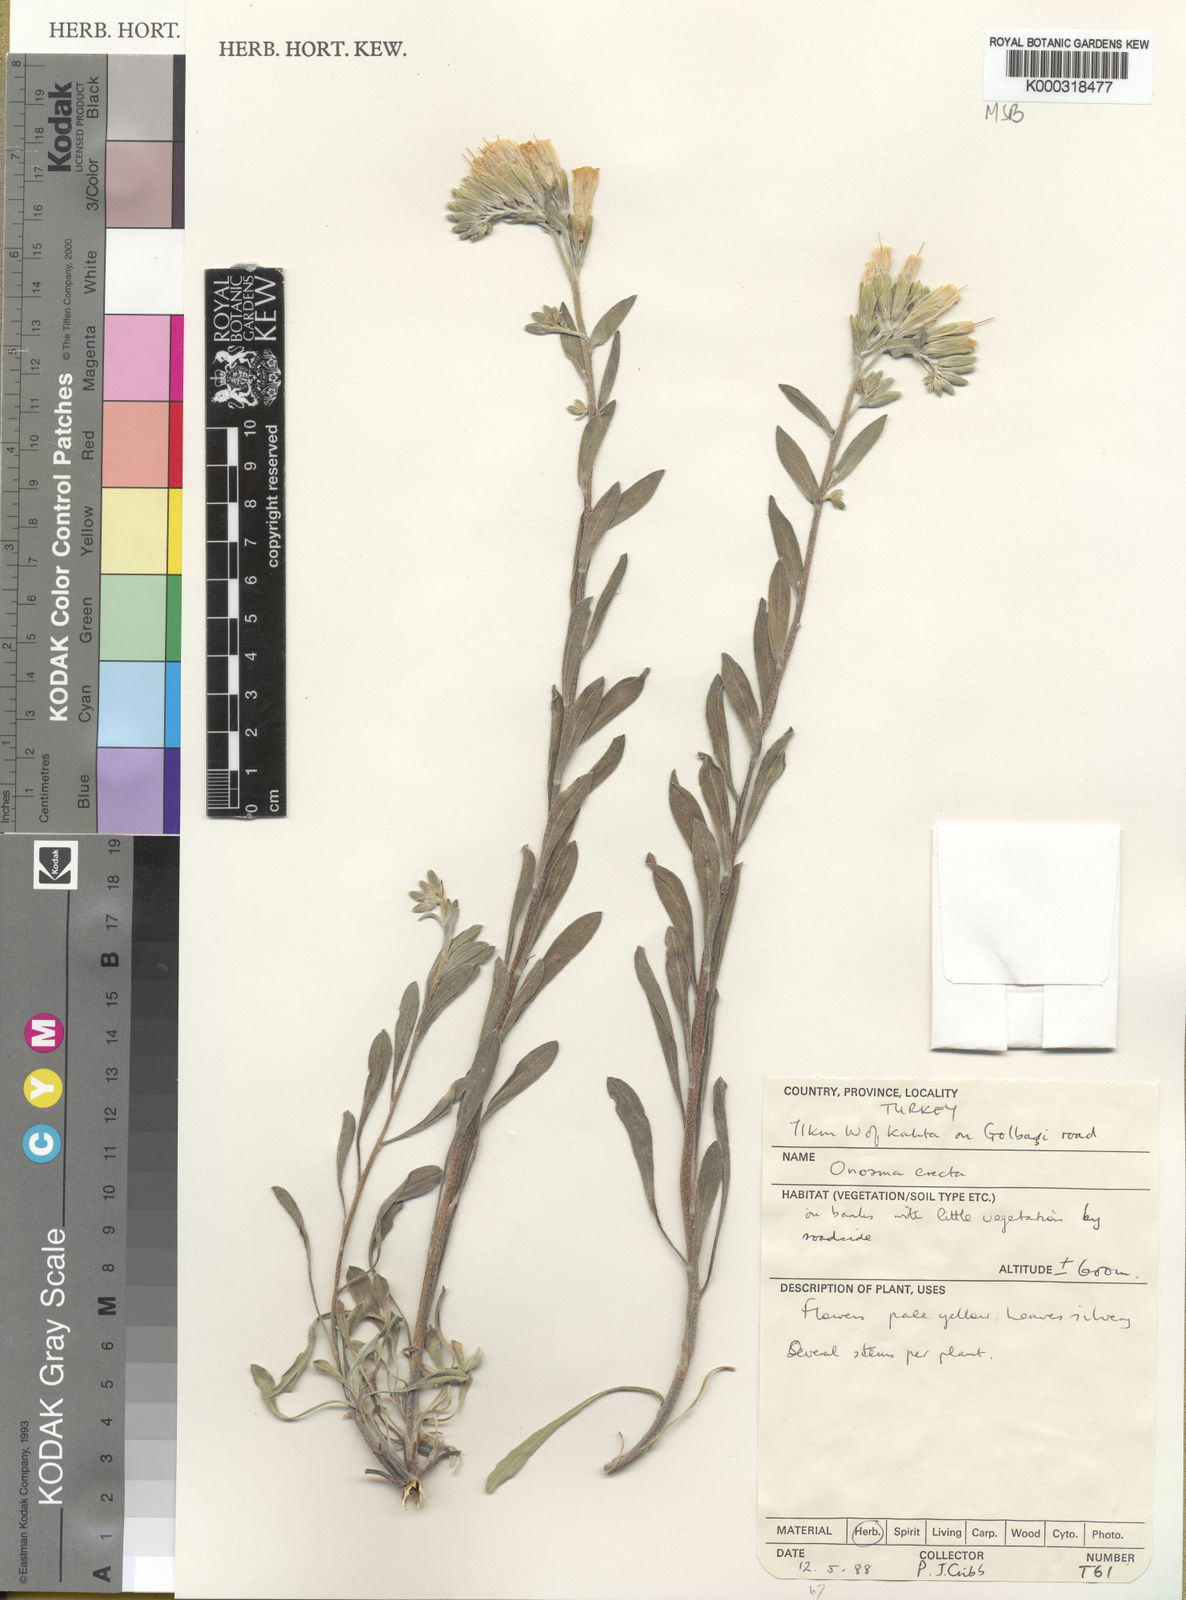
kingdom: Plantae
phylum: Tracheophyta
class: Magnoliopsida
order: Boraginales
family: Boraginaceae
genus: Onosma
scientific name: Onosma erecta
